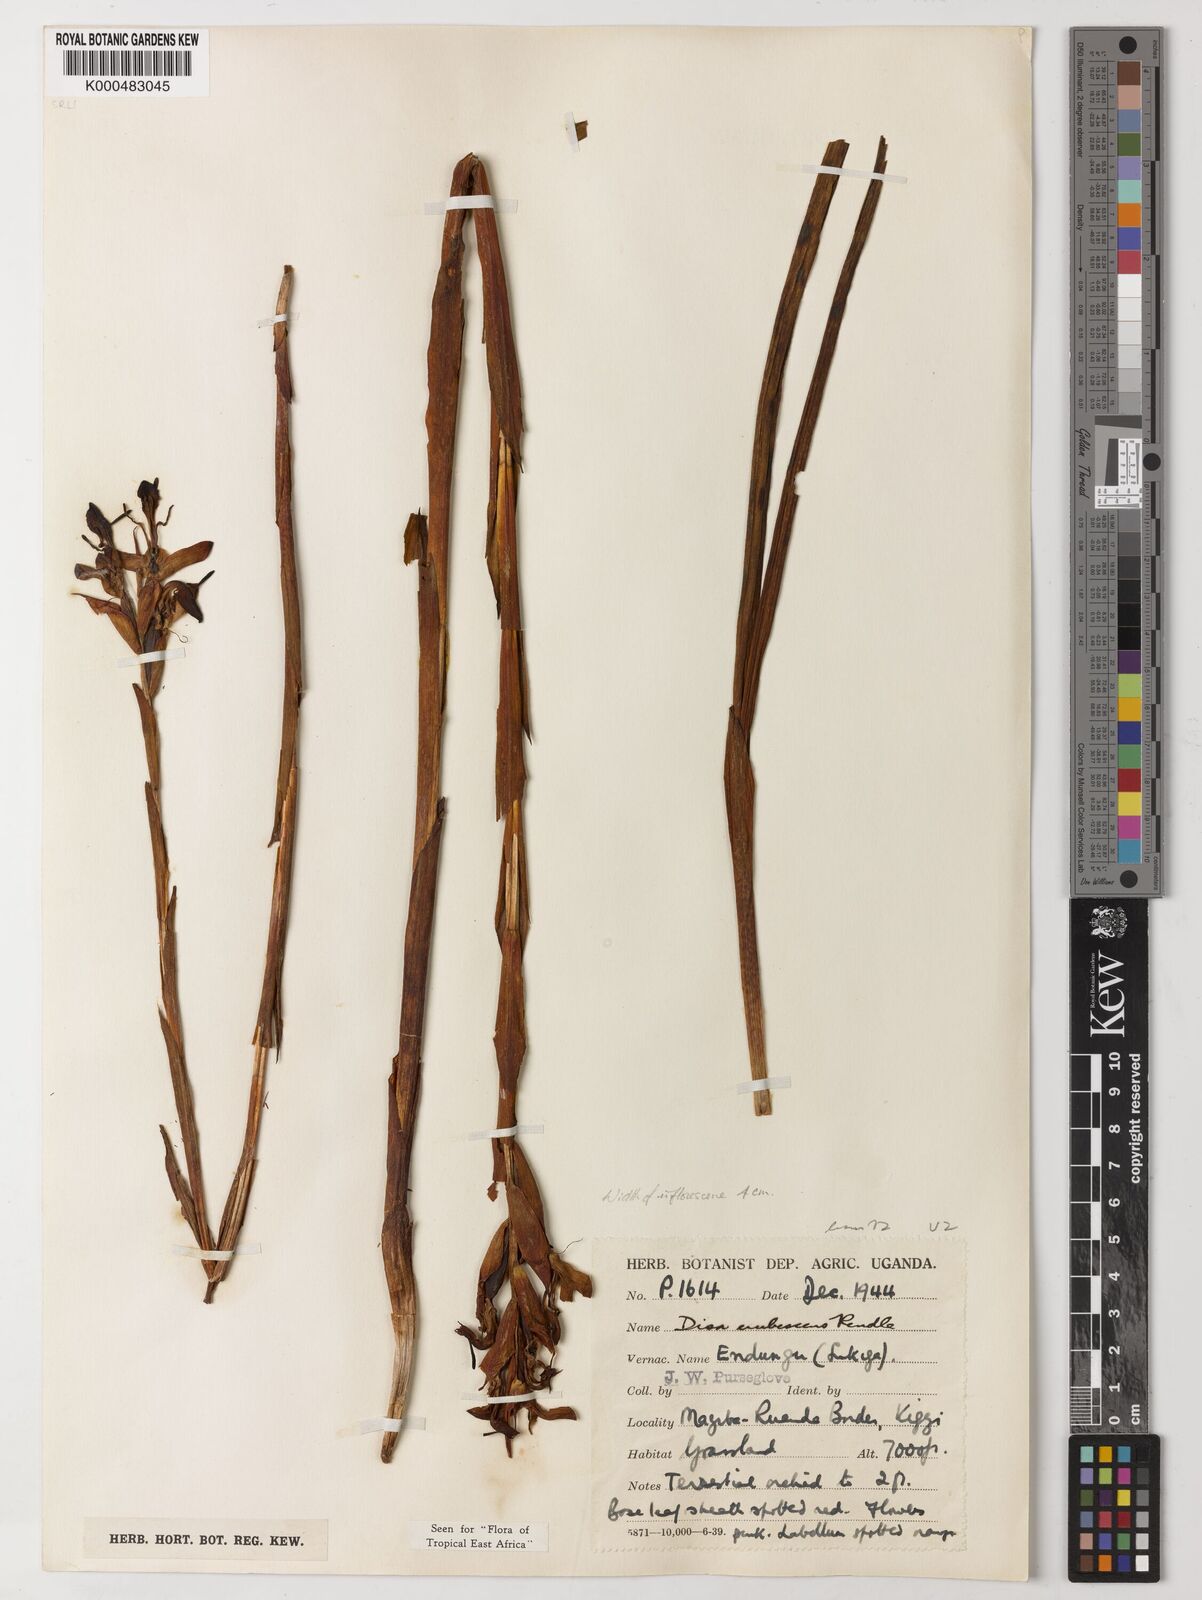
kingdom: Plantae
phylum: Tracheophyta
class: Liliopsida
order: Asparagales
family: Orchidaceae
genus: Disa
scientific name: Disa erubescens
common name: The rose disa
